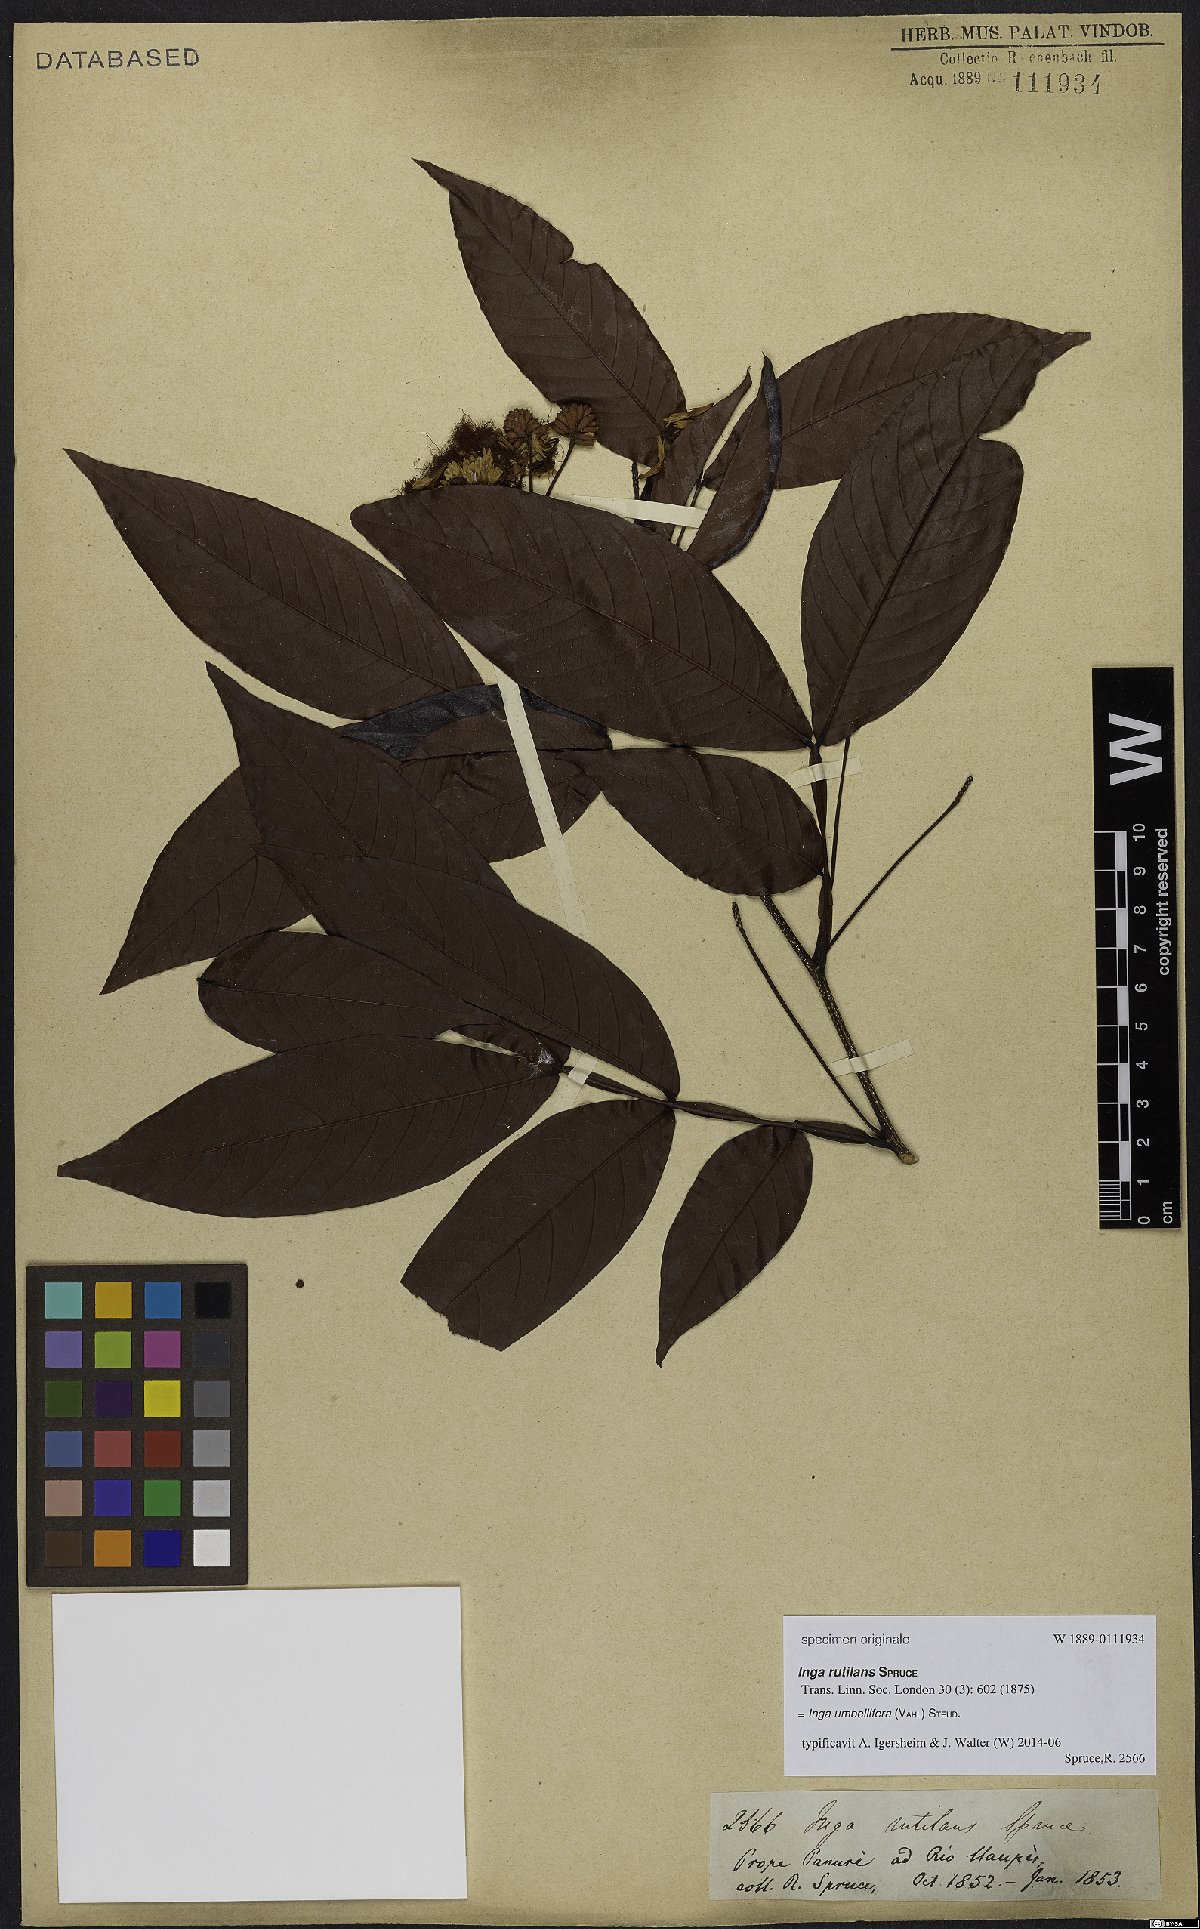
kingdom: Plantae
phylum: Tracheophyta
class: Magnoliopsida
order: Fabales
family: Fabaceae
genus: Inga
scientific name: Inga umbellifera
